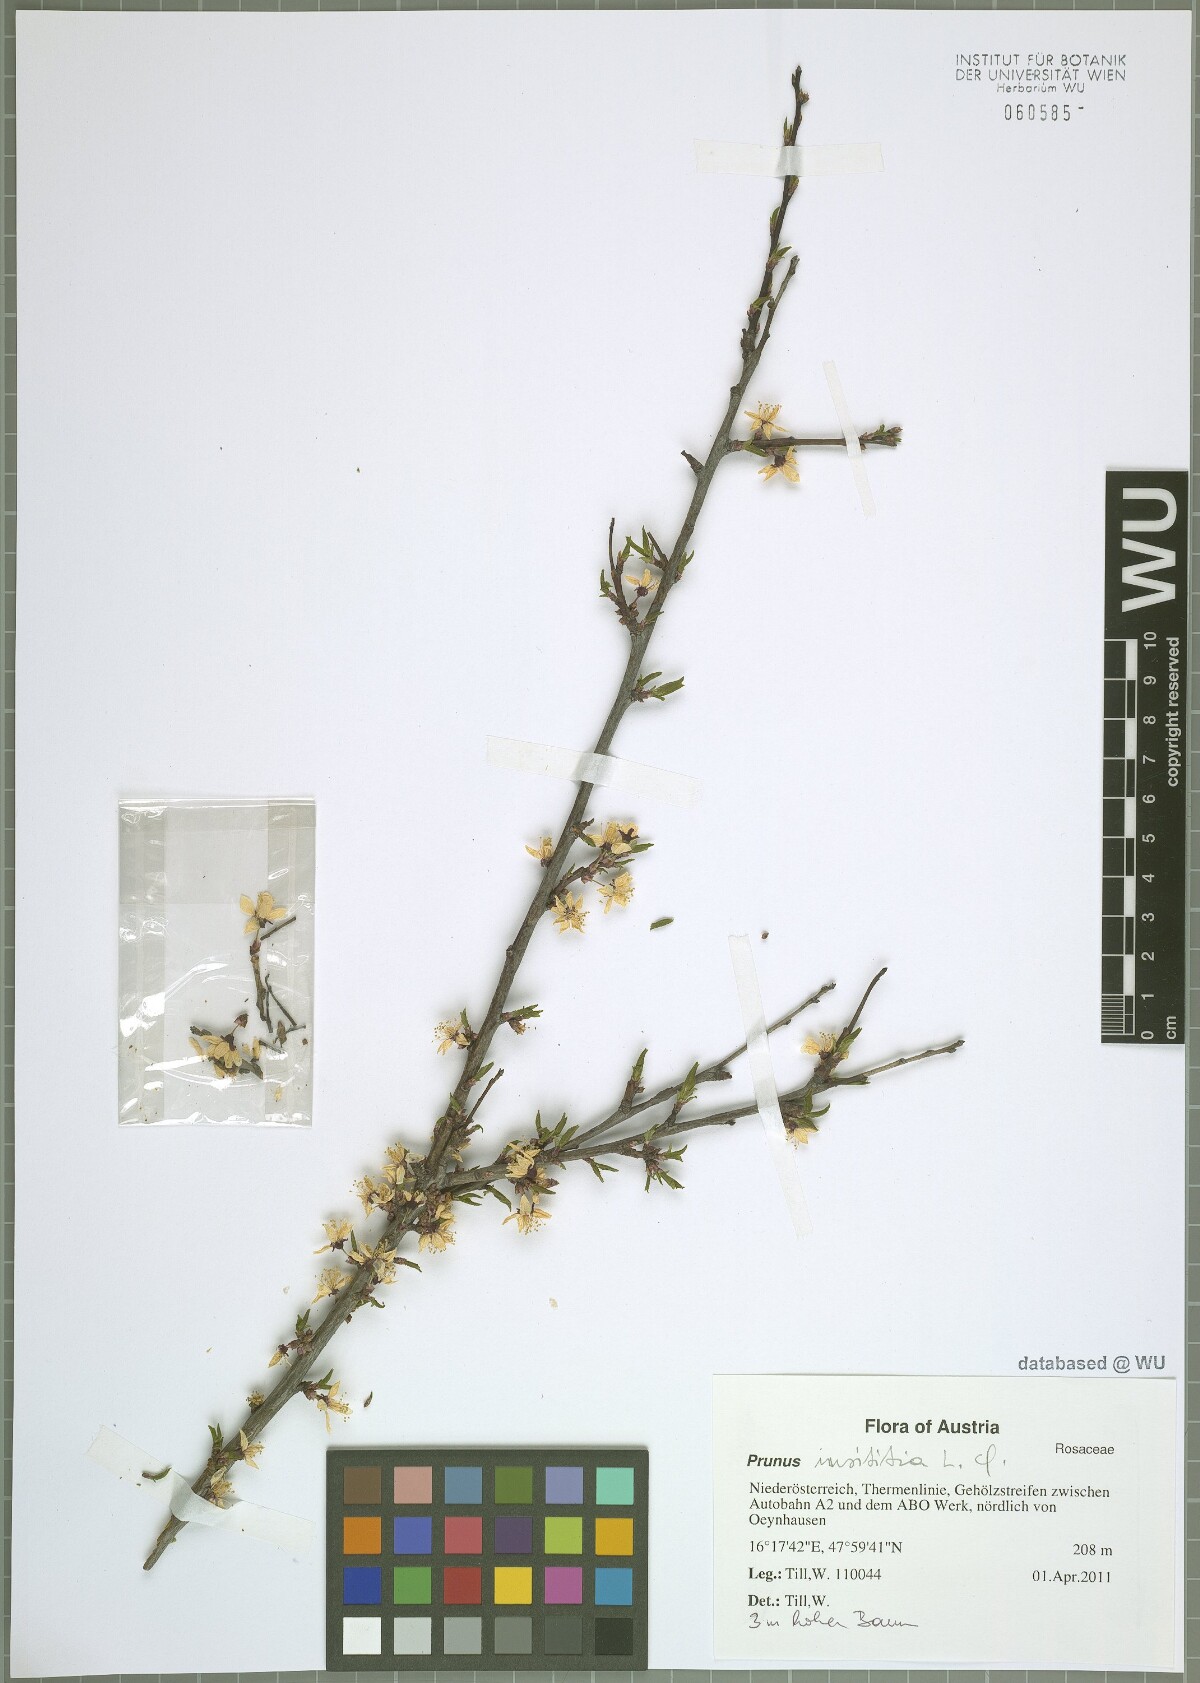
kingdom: Plantae
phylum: Tracheophyta
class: Magnoliopsida
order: Rosales
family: Rosaceae
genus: Prunus
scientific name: Prunus domestica
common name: Wild plum
